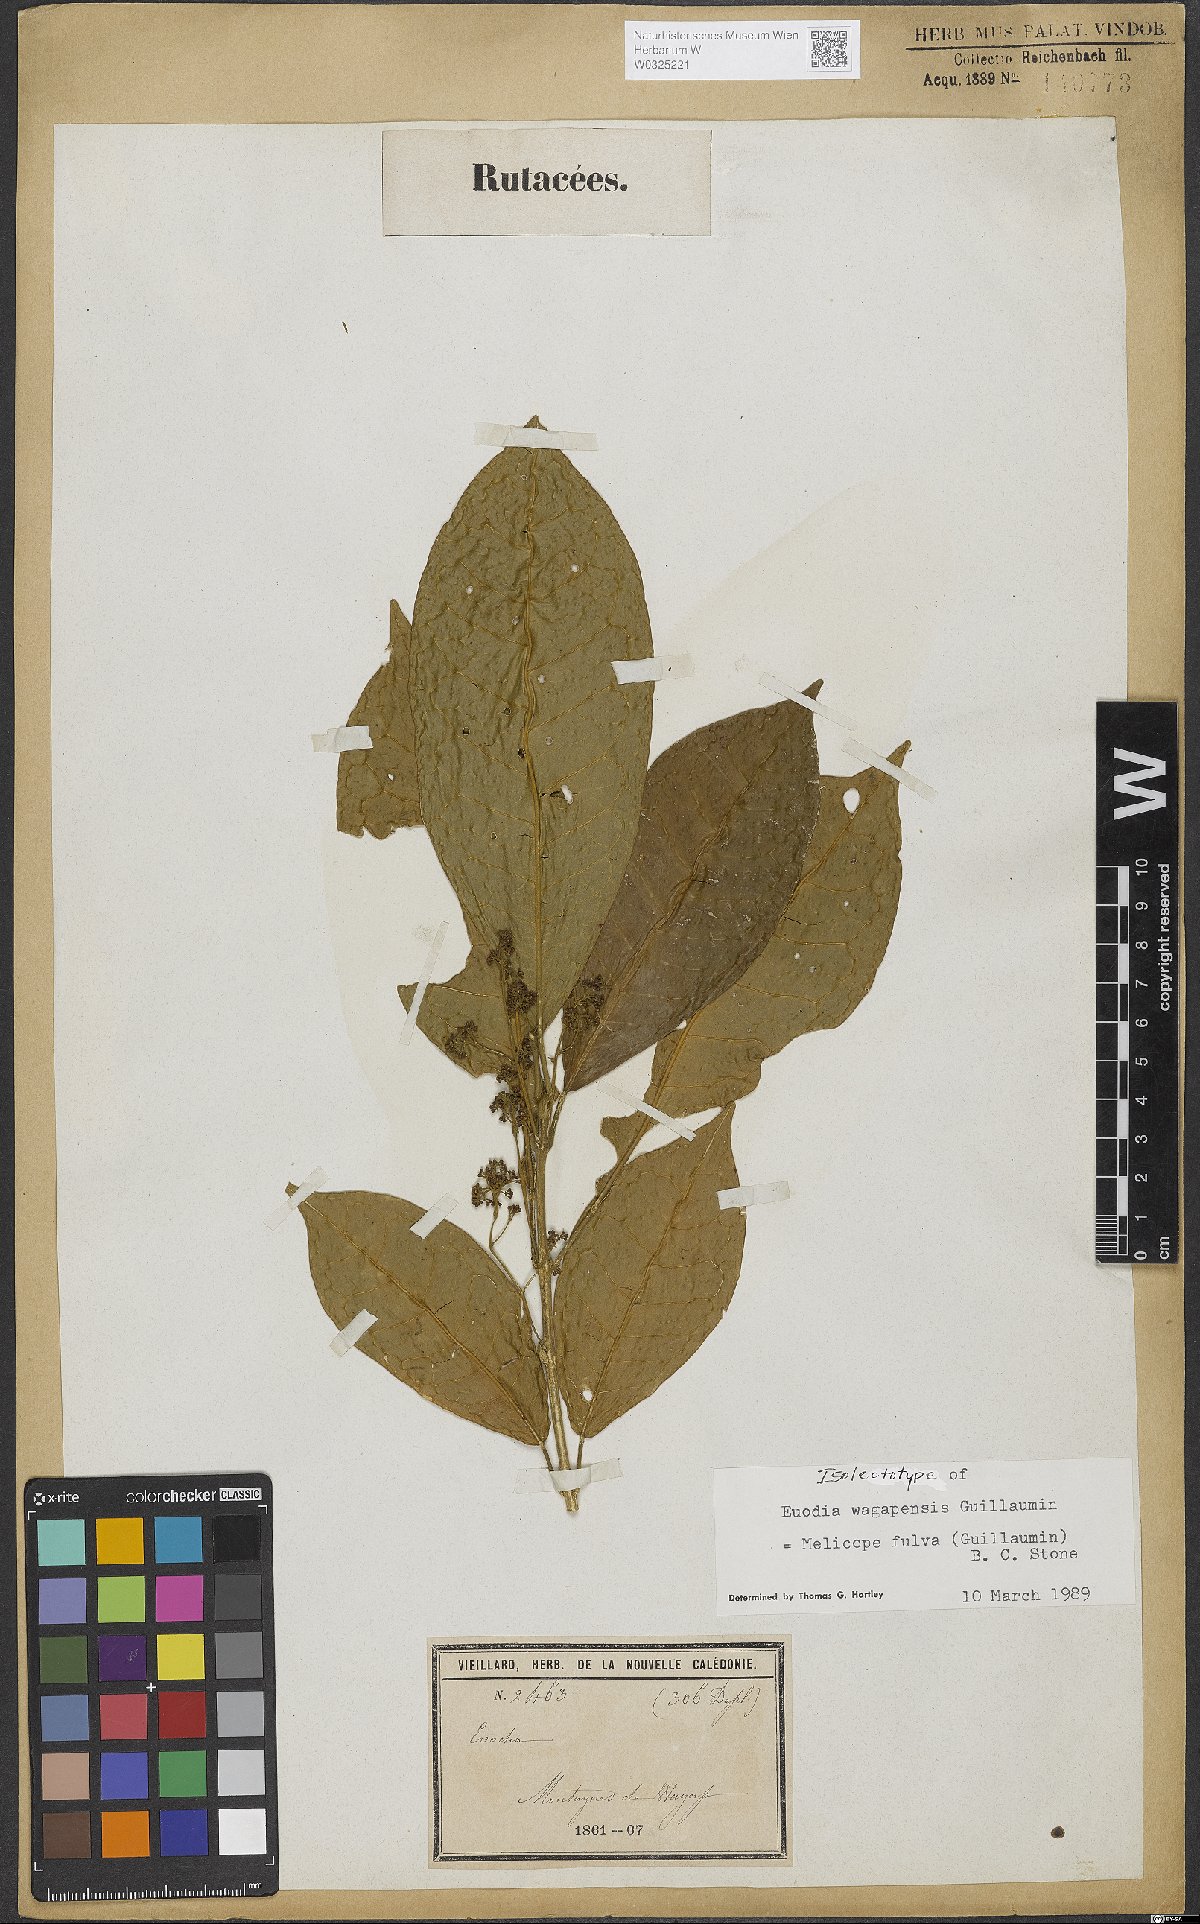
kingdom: Plantae
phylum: Tracheophyta
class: Magnoliopsida
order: Sapindales
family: Rutaceae
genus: Melicope
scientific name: Melicope
